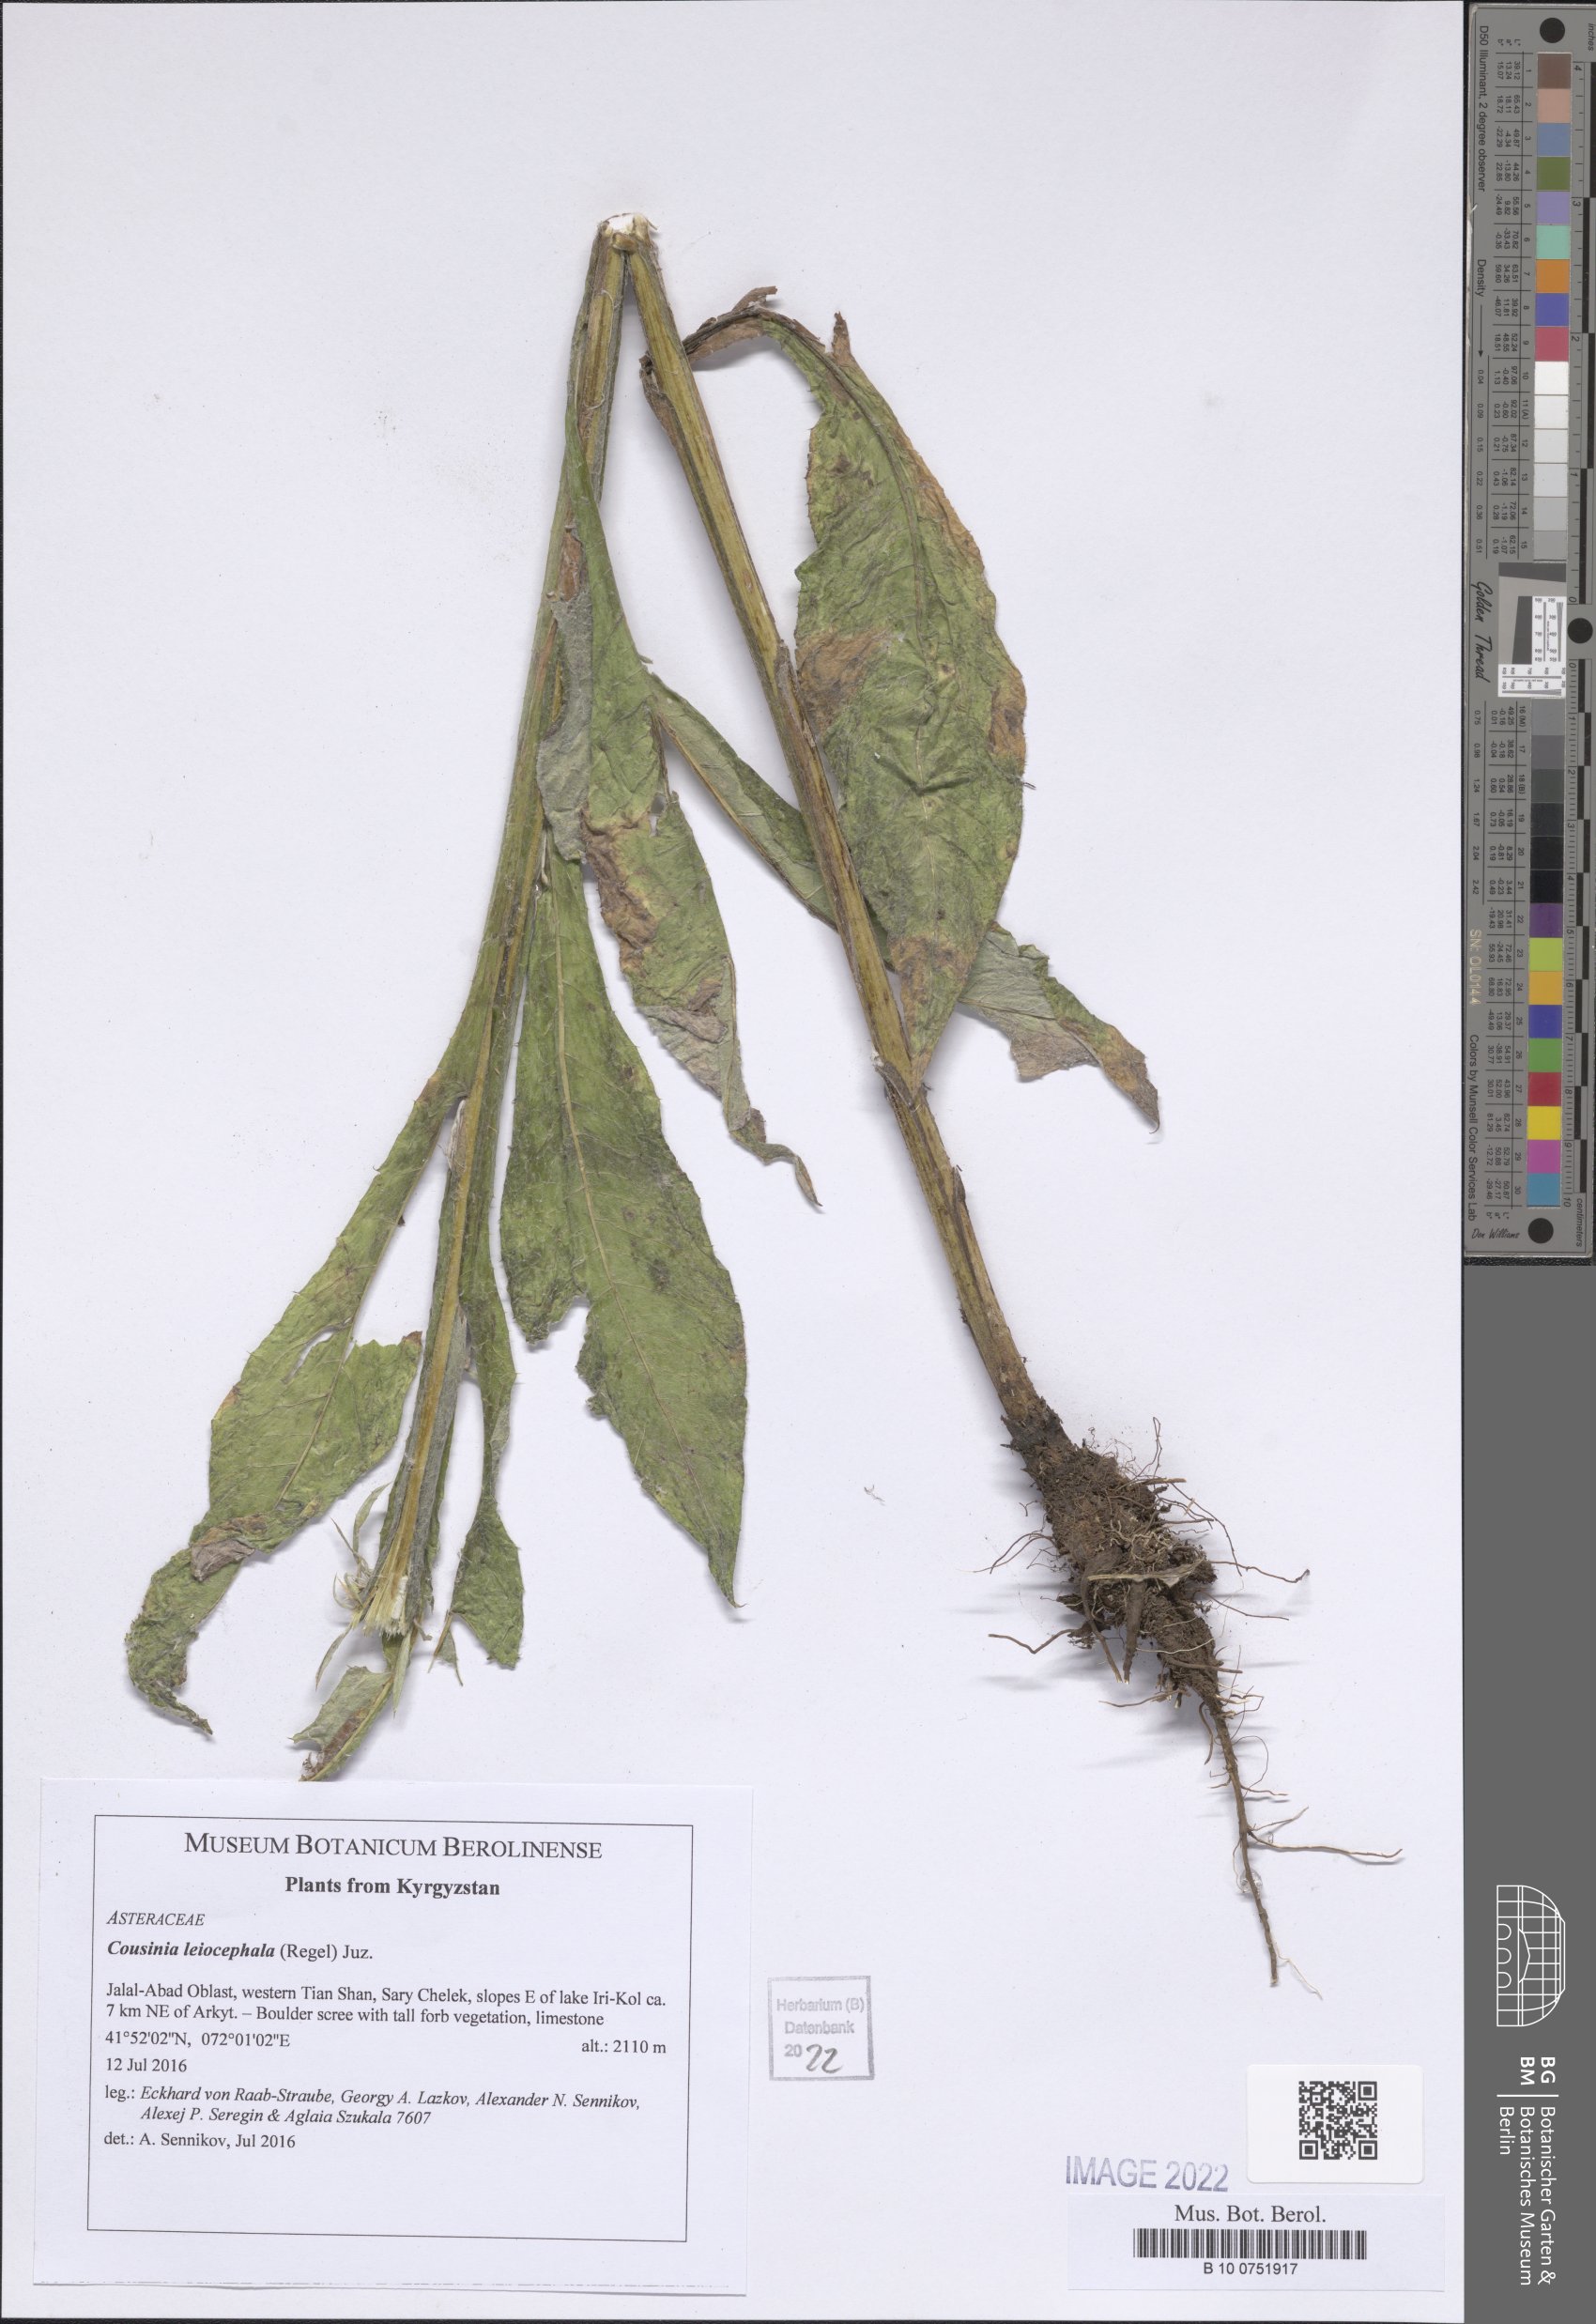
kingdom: Plantae
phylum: Tracheophyta
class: Magnoliopsida
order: Asterales
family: Asteraceae
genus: Cousinia
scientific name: Cousinia leiocephala
